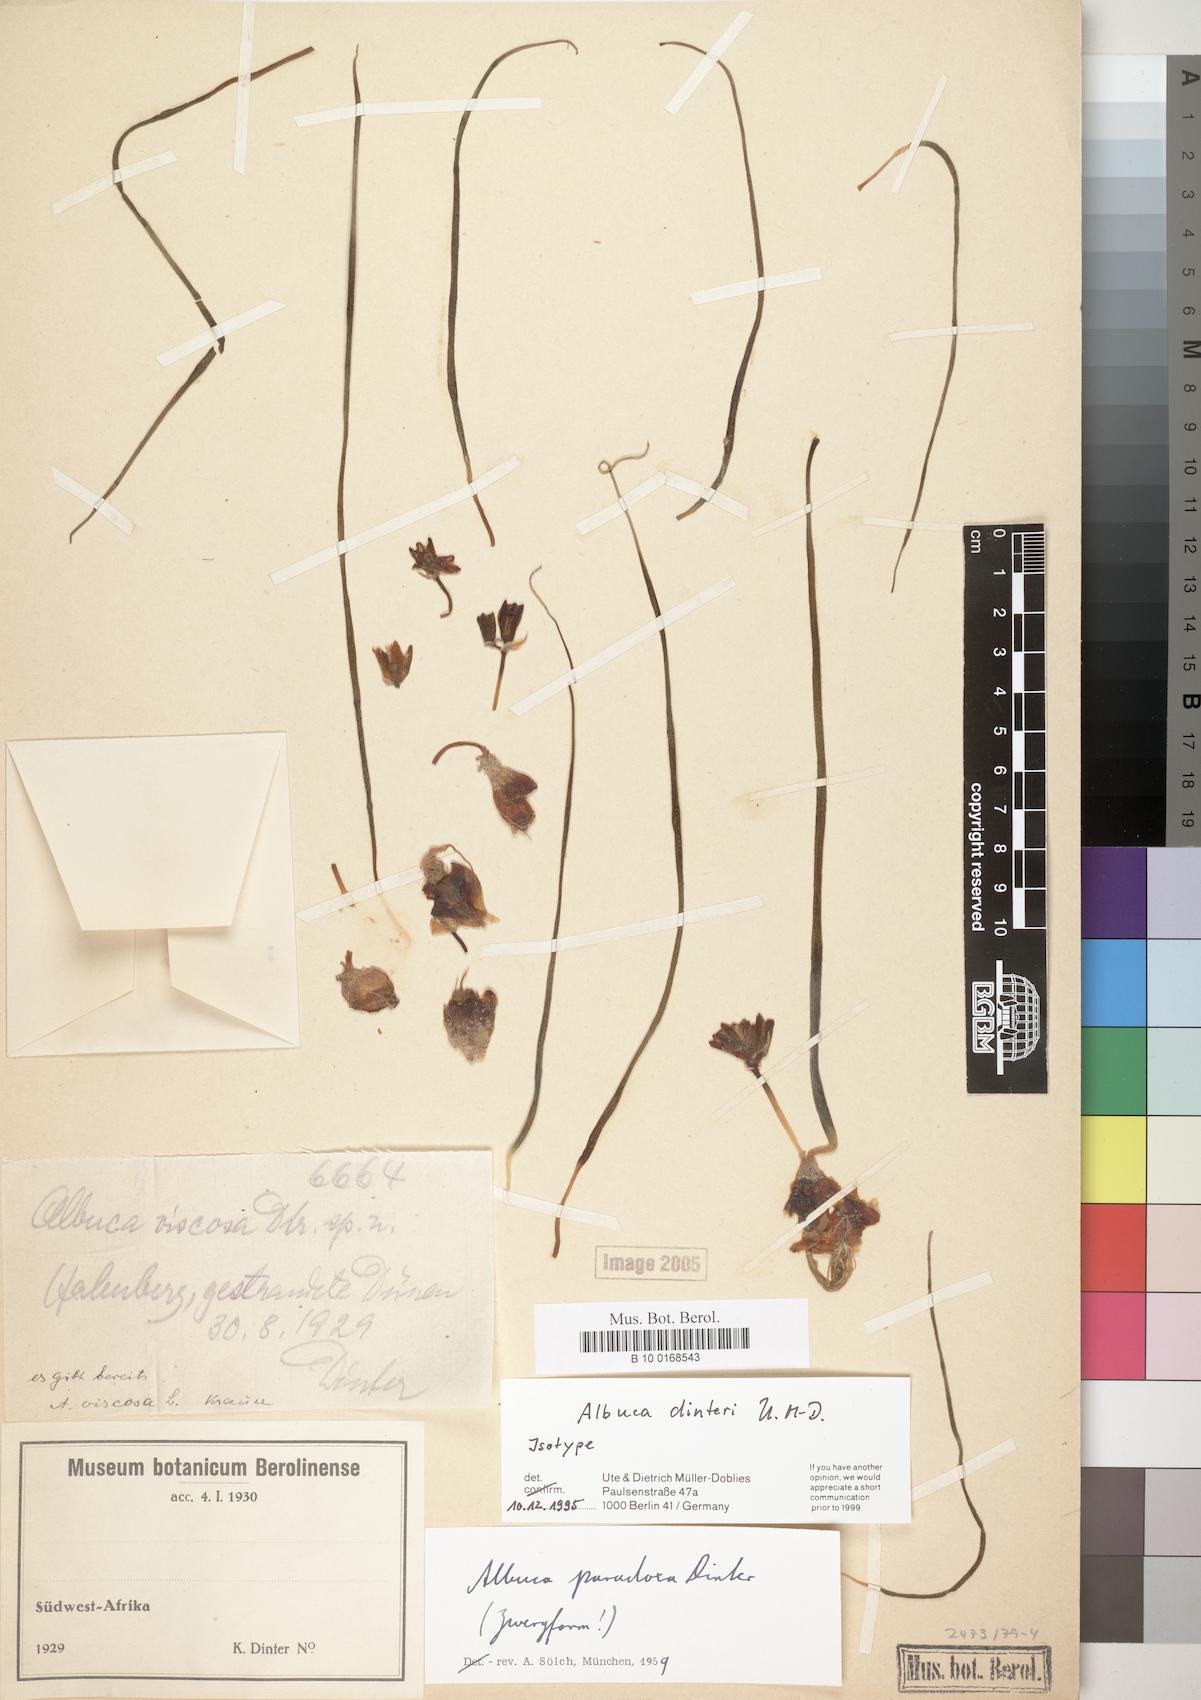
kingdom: Plantae
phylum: Tracheophyta
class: Liliopsida
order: Asparagales
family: Asparagaceae
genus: Albuca
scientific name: Albuca dinteri
